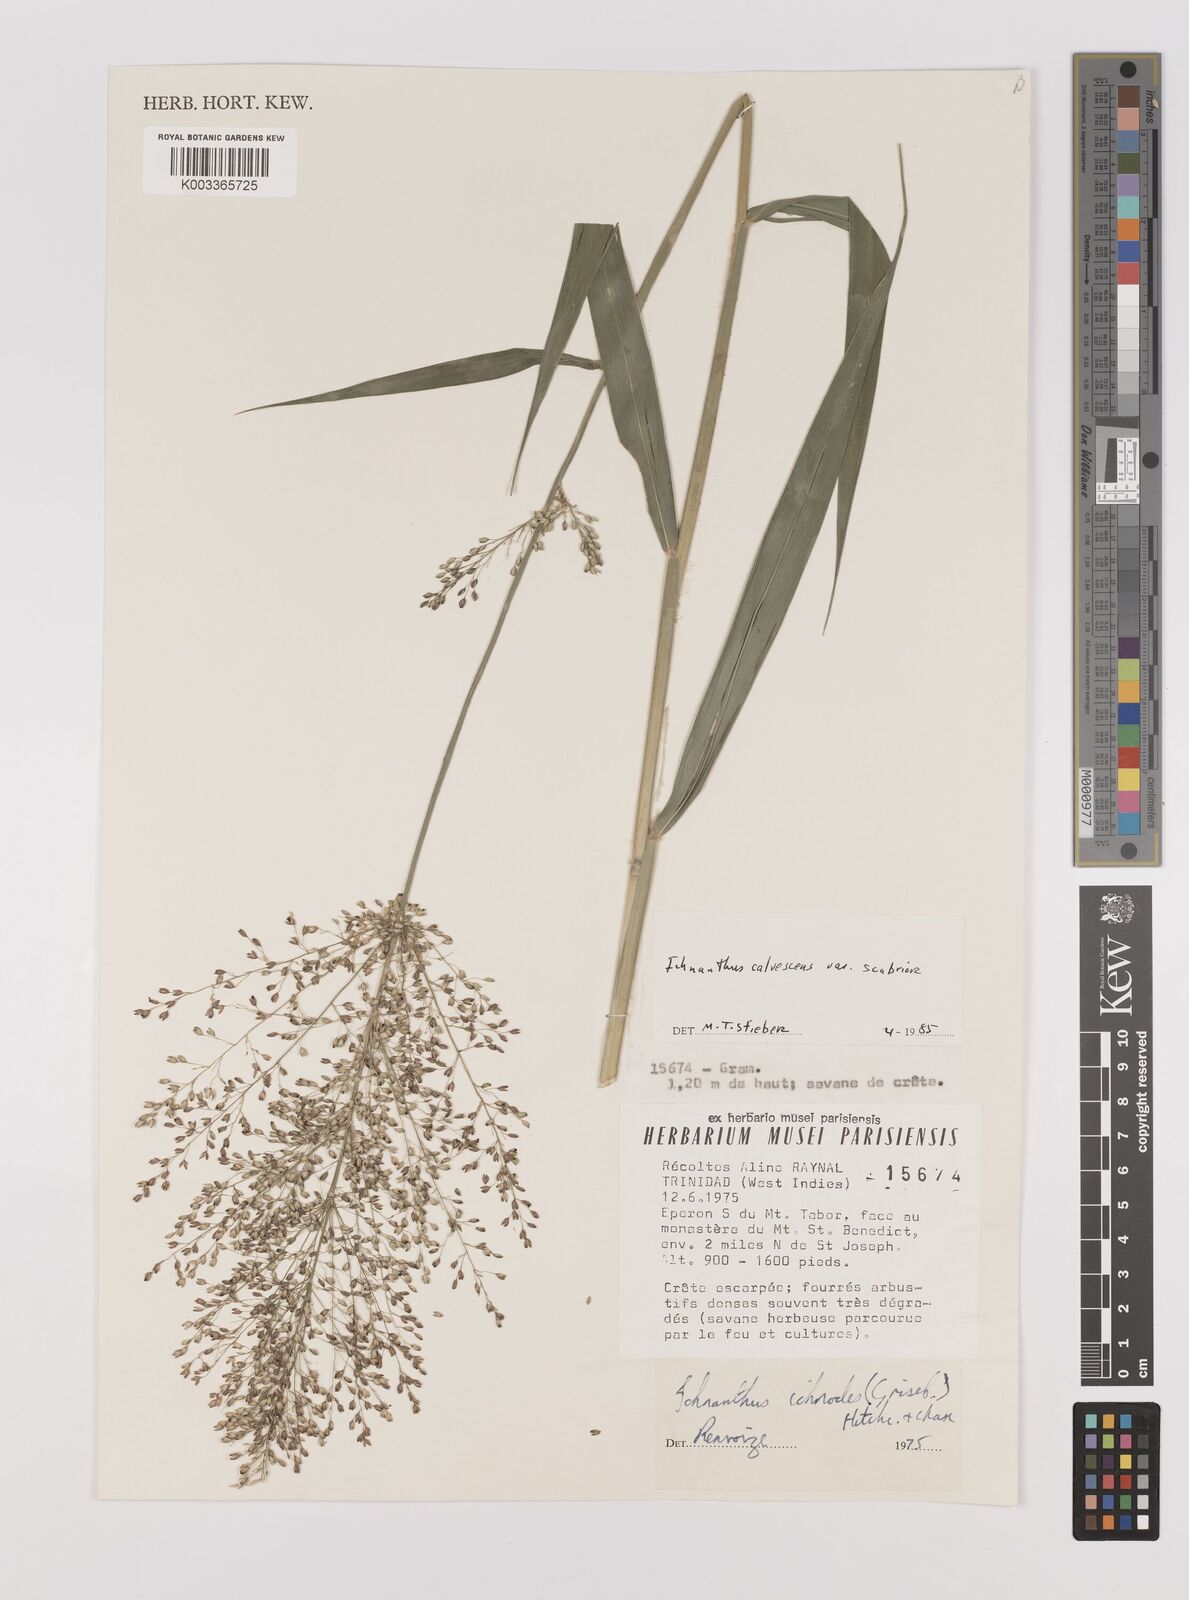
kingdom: Plantae
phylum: Tracheophyta
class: Liliopsida
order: Poales
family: Poaceae
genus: Ichnanthus
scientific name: Ichnanthus calvescens
